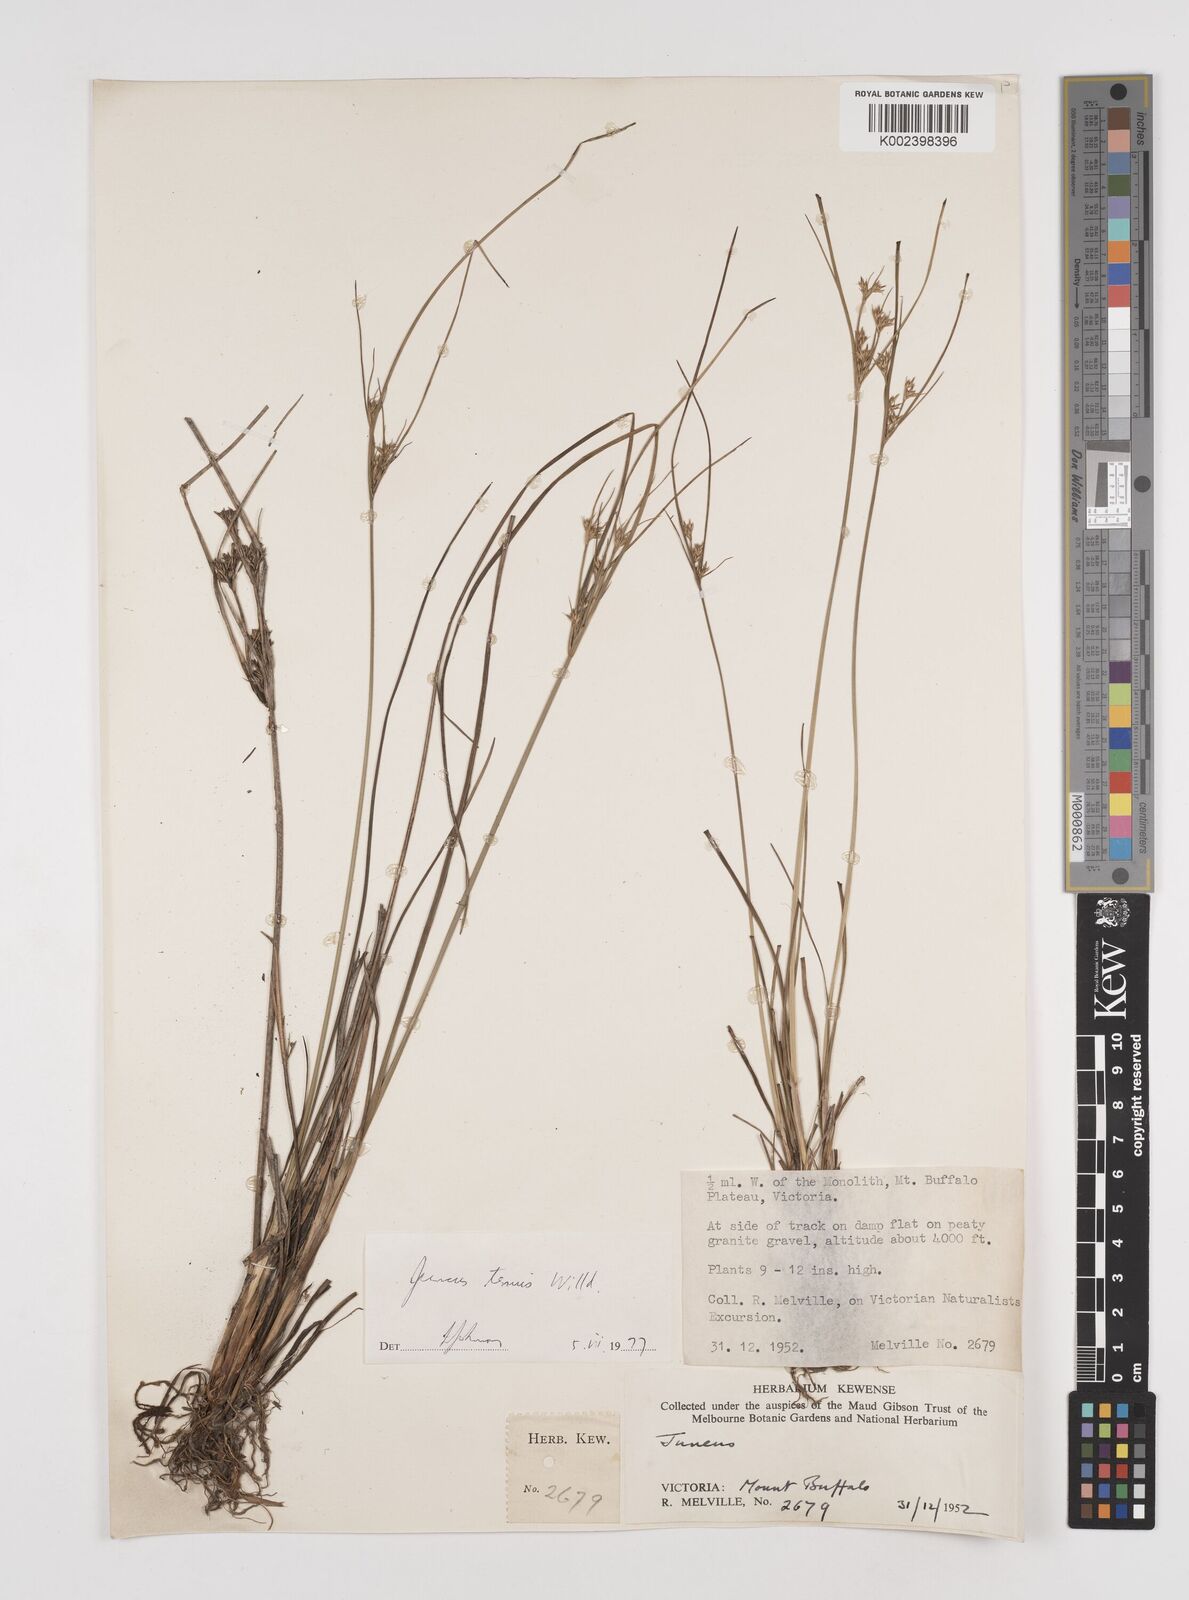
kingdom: Plantae
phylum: Tracheophyta
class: Liliopsida
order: Poales
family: Juncaceae
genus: Juncus
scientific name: Juncus tenuis
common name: Slender rush
